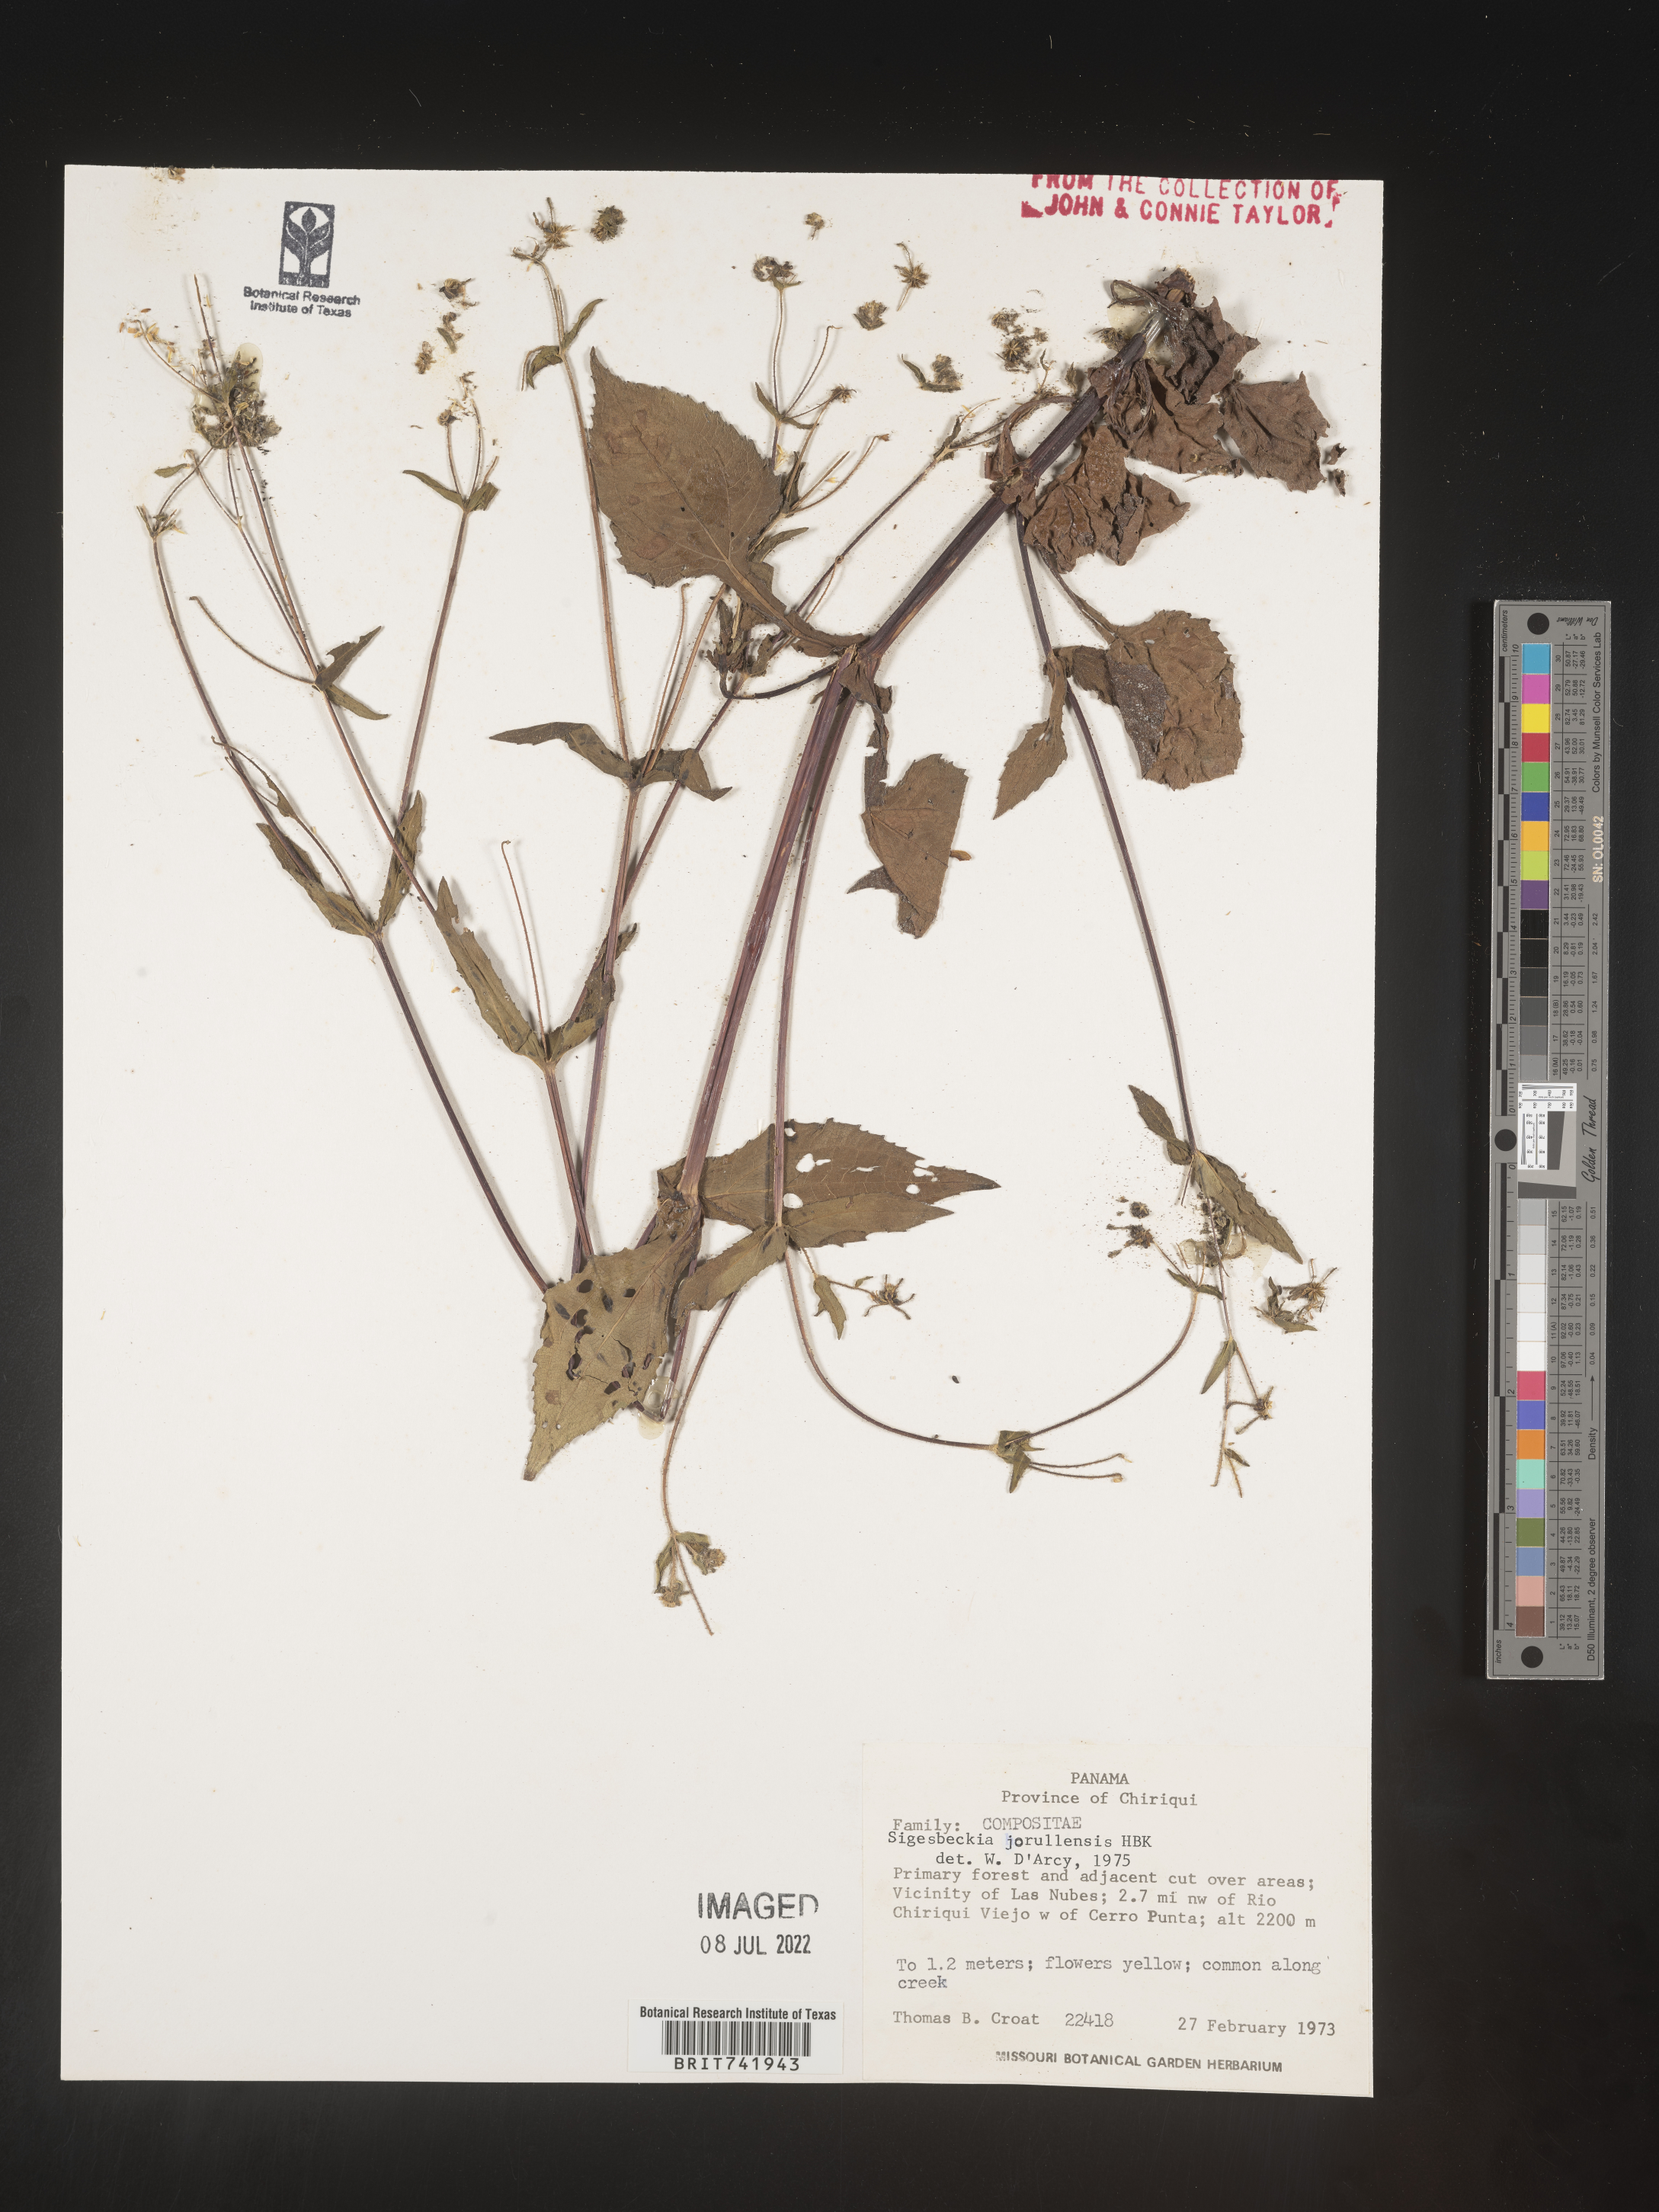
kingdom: Plantae
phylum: Tracheophyta
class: Magnoliopsida
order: Asterales
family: Asteraceae
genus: Sigesbeckia
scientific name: Sigesbeckia
